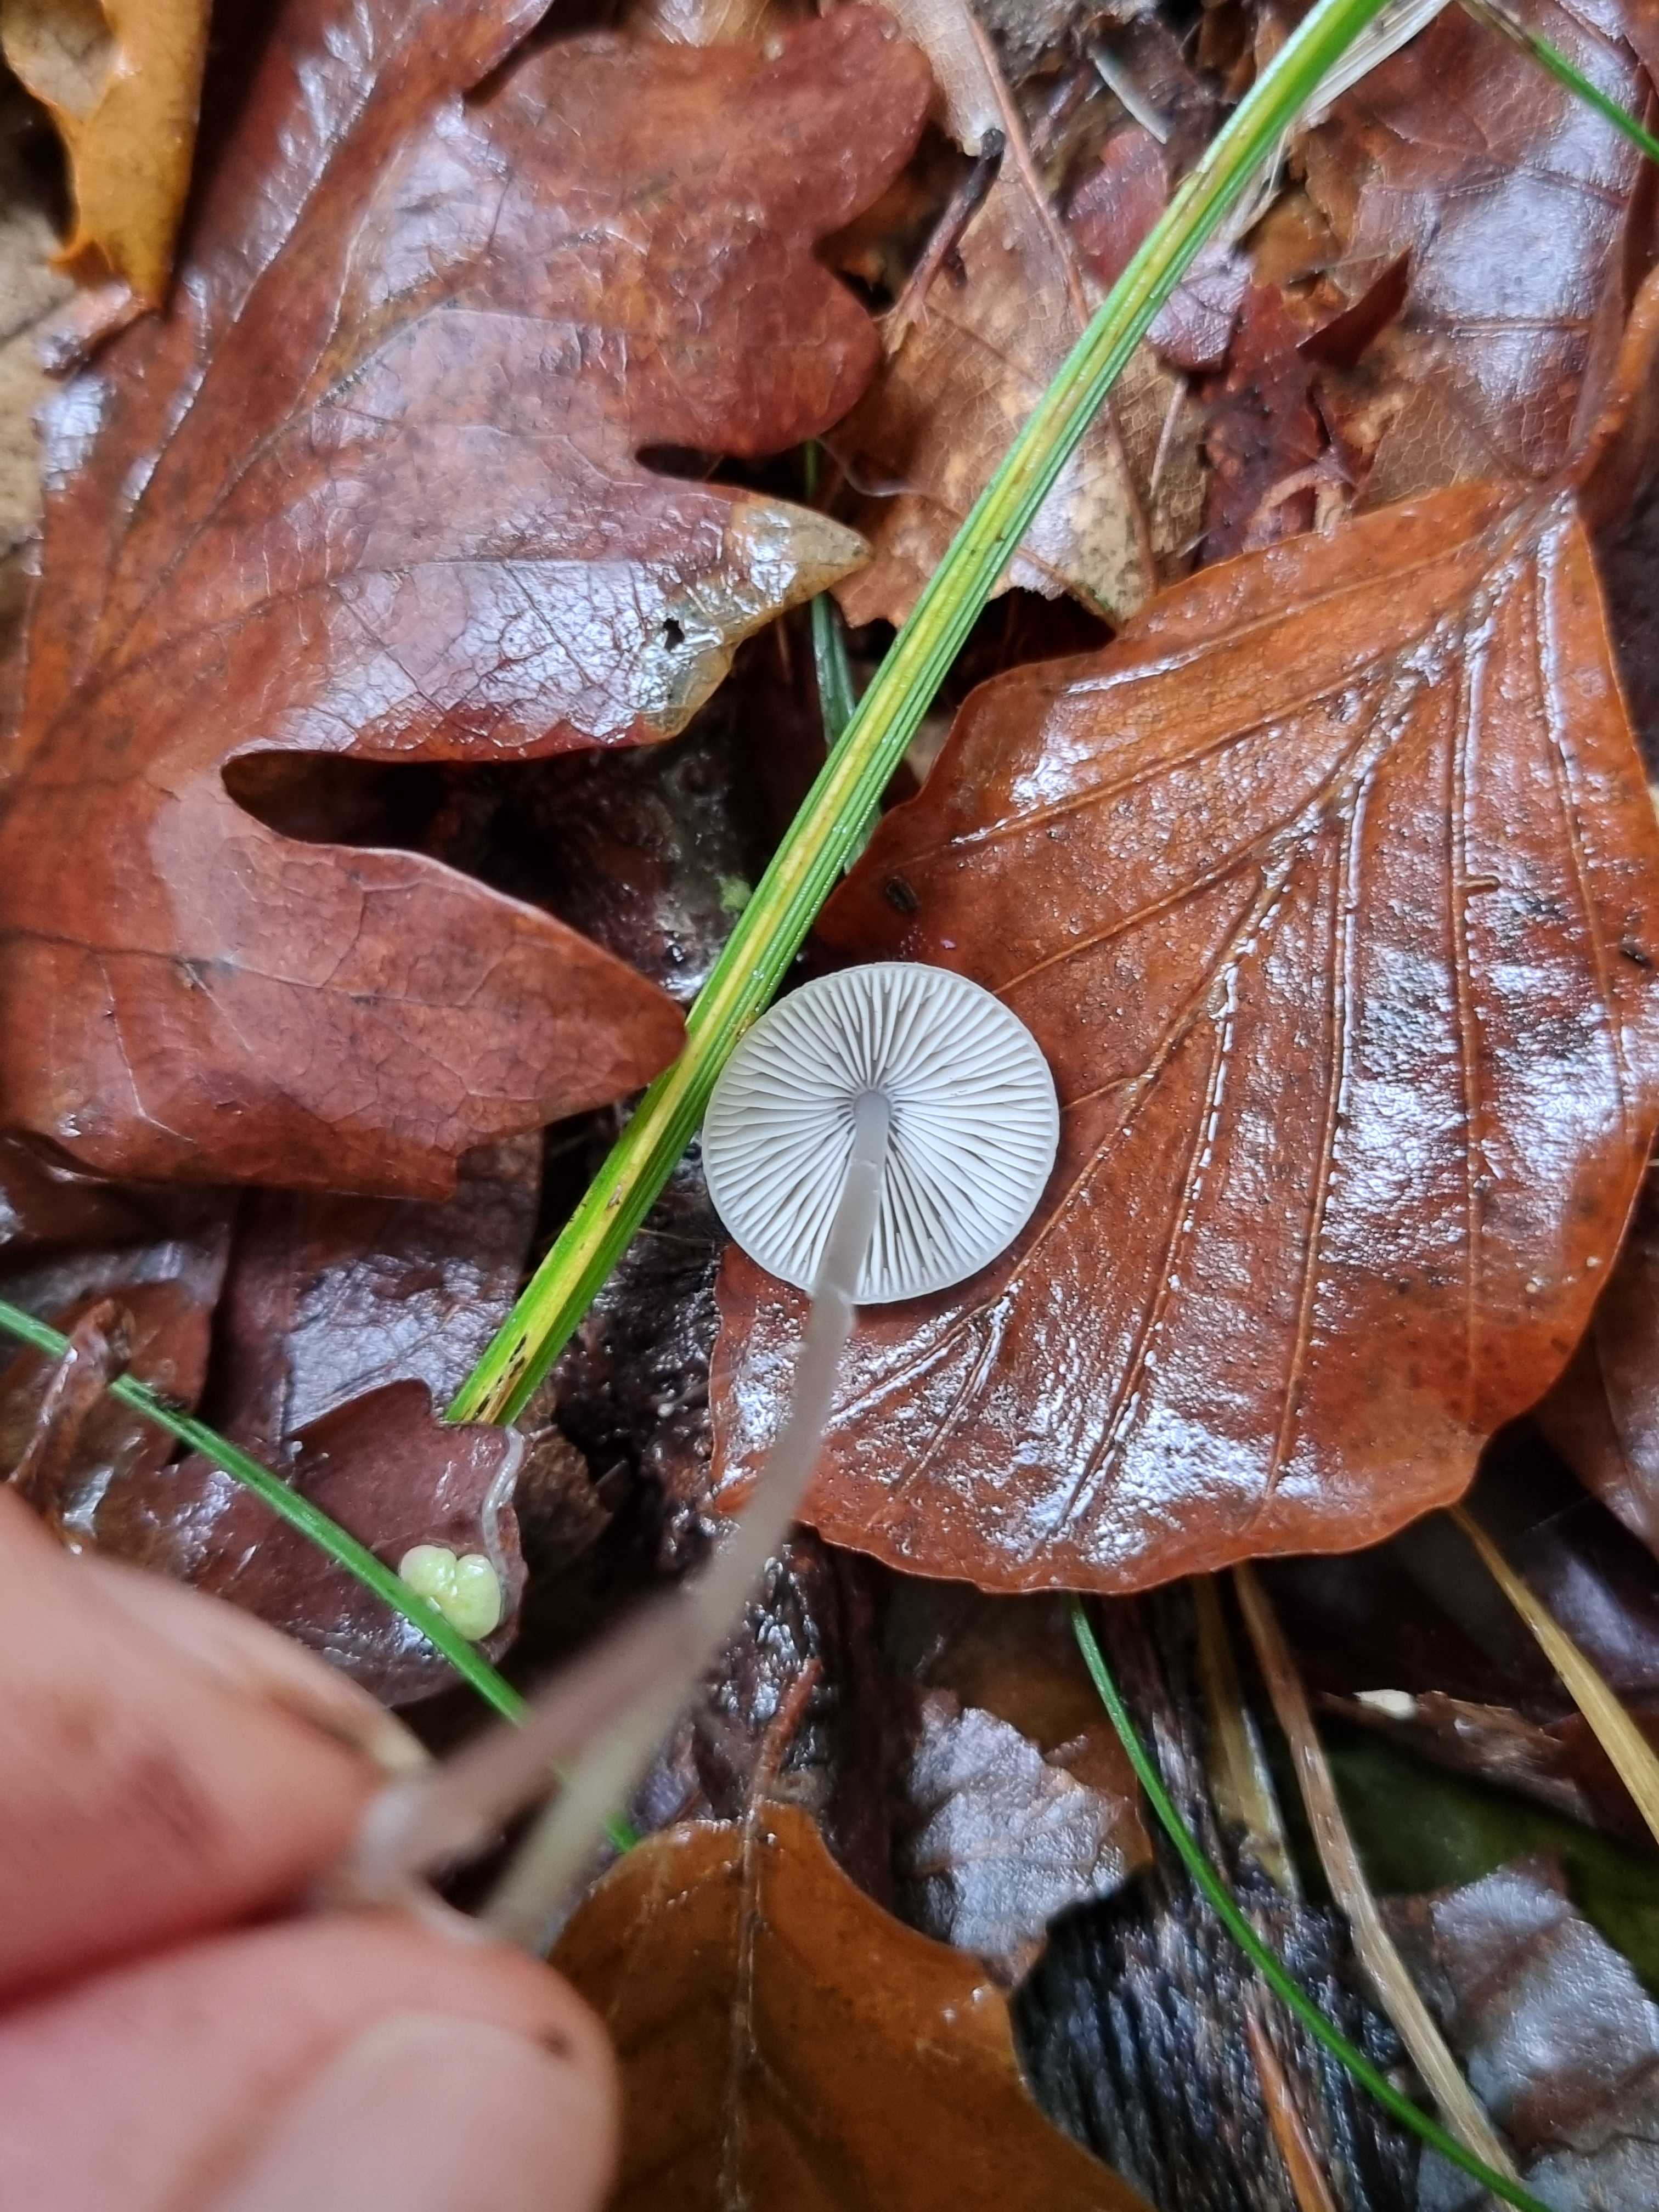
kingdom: Fungi
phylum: Basidiomycota
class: Agaricomycetes
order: Agaricales
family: Mycenaceae
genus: Mycena
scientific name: Mycena
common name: huesvamp
